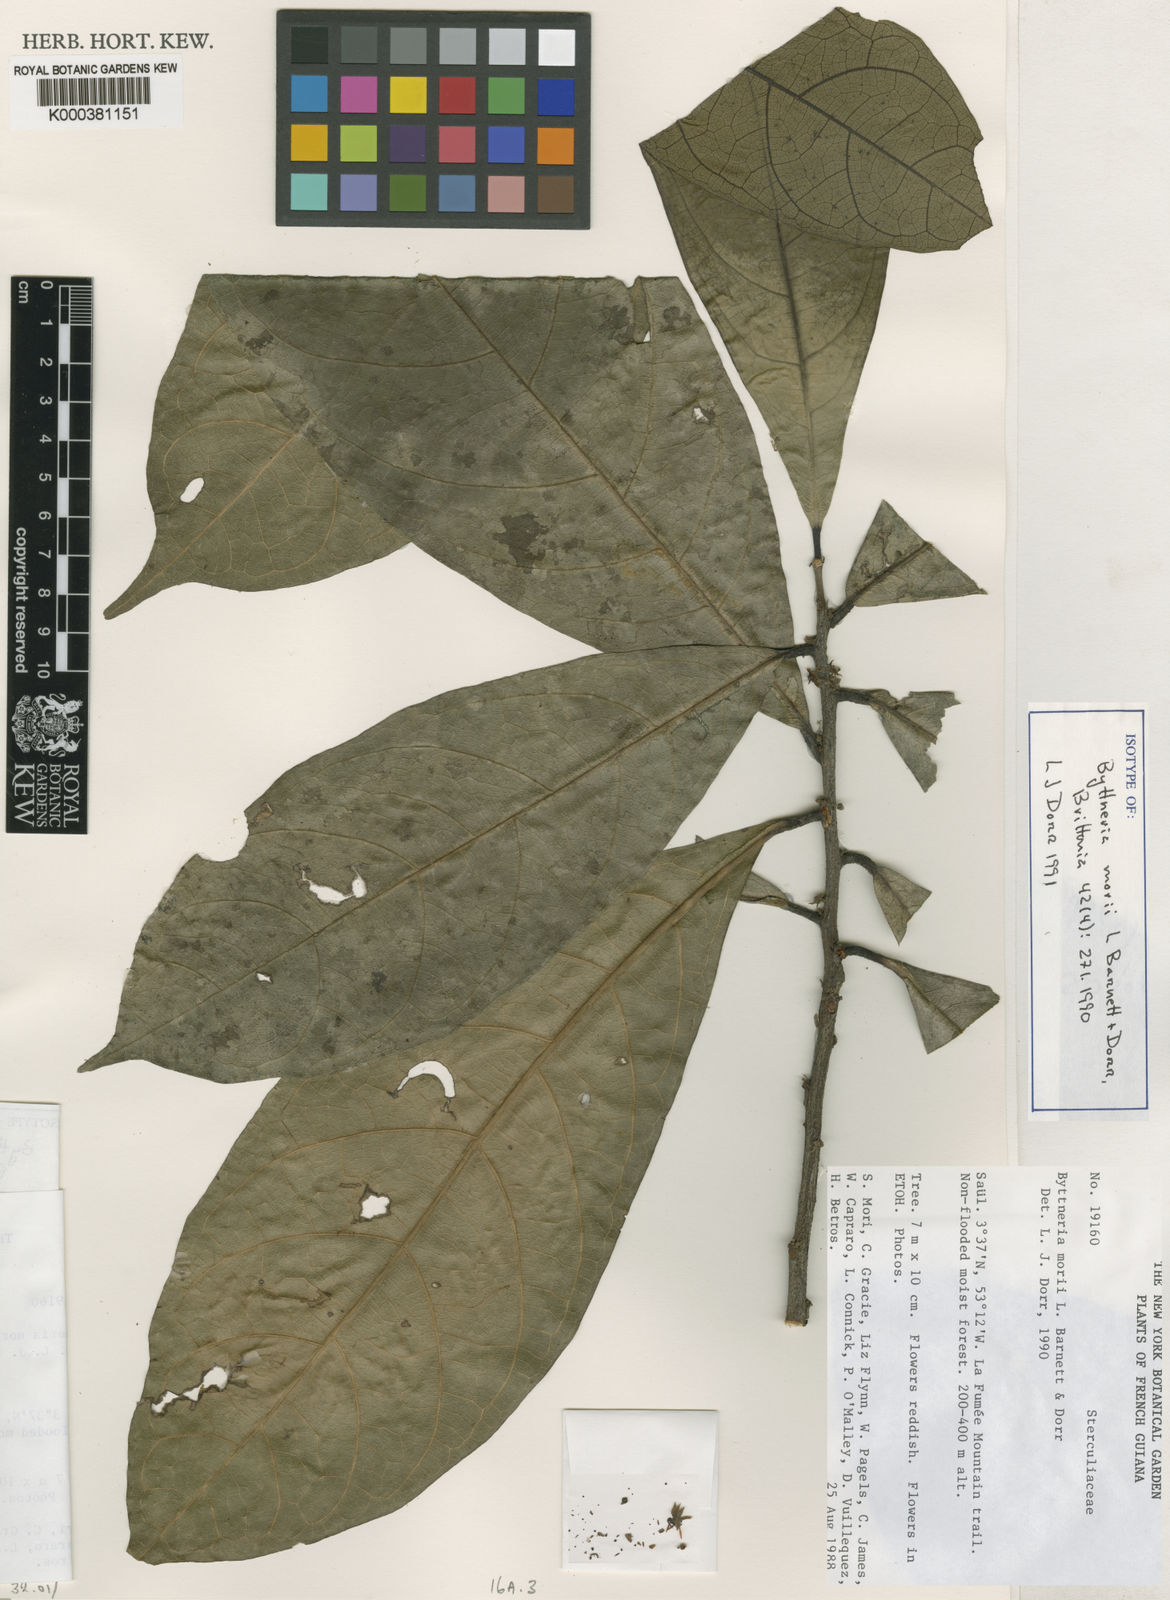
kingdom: Plantae
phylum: Tracheophyta
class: Magnoliopsida
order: Malvales
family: Malvaceae
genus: Byttneria
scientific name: Byttneria morii
